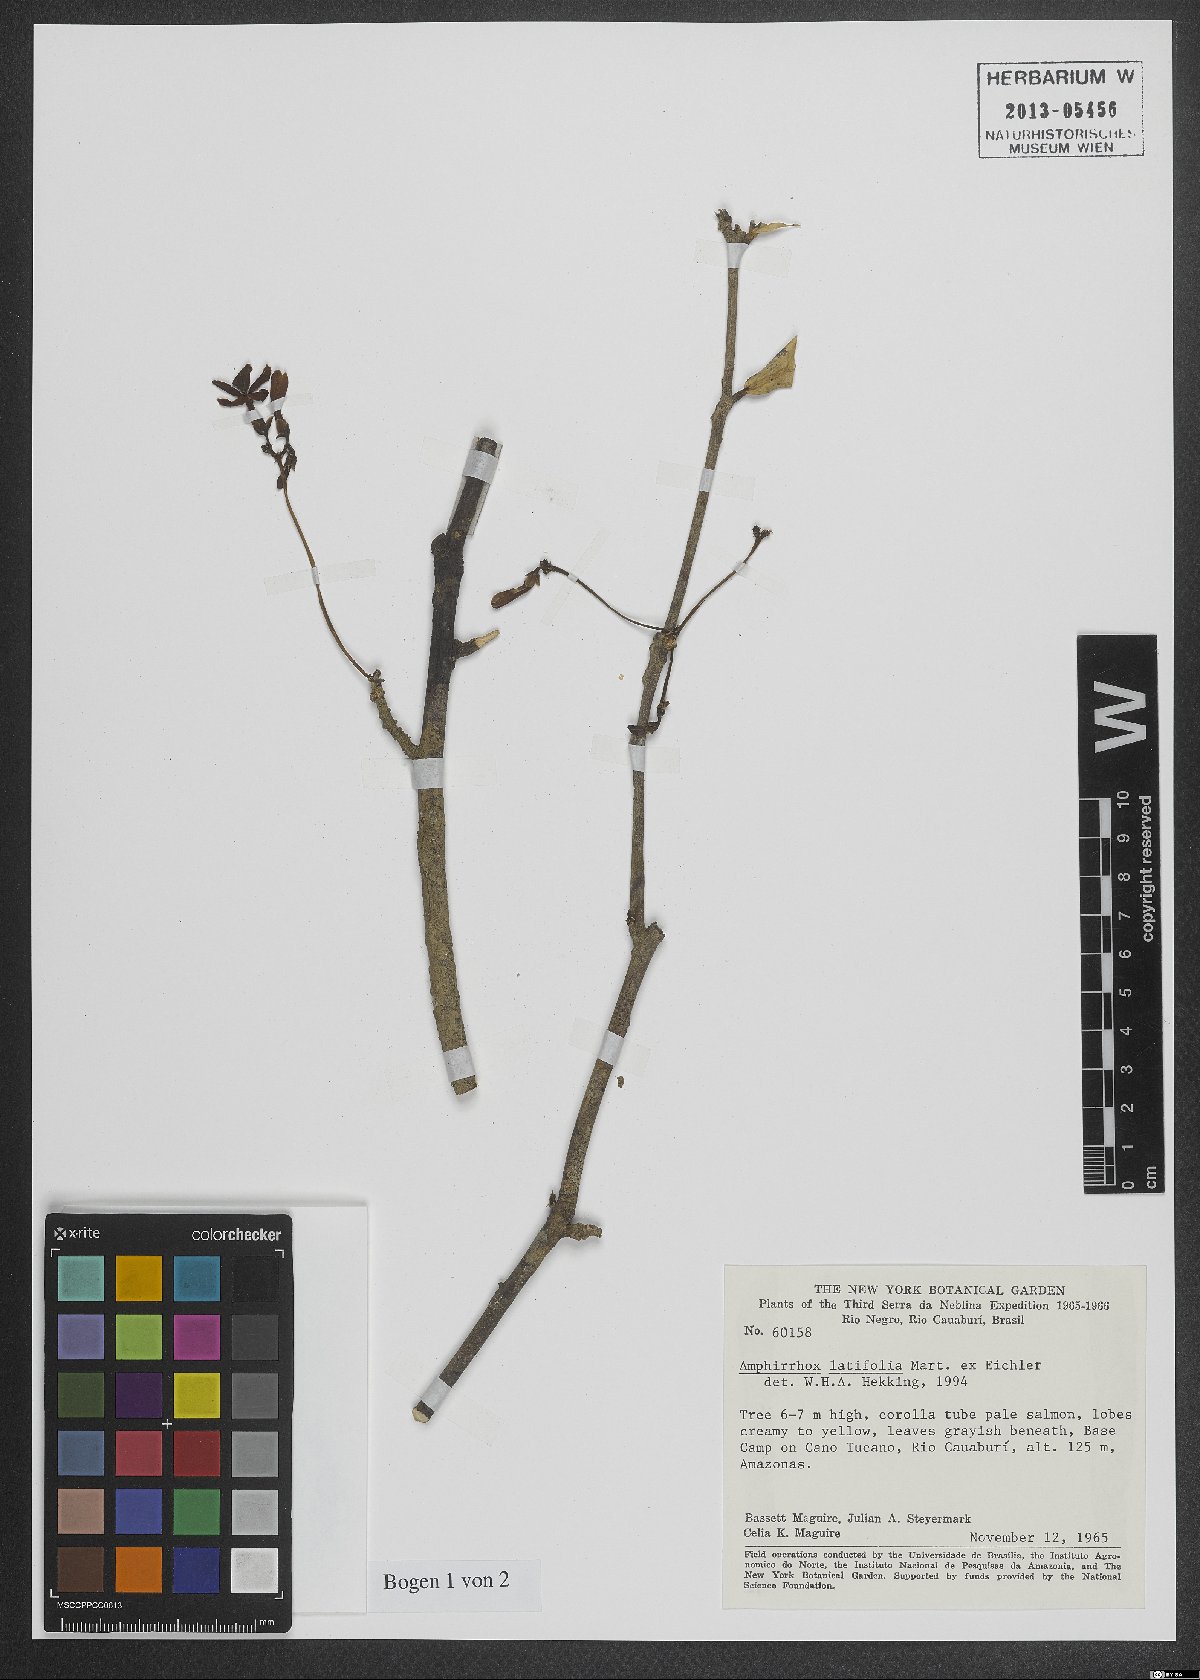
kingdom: Plantae
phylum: Tracheophyta
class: Magnoliopsida
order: Malpighiales
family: Violaceae
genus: Amphirrhox
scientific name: Amphirrhox longifolia
